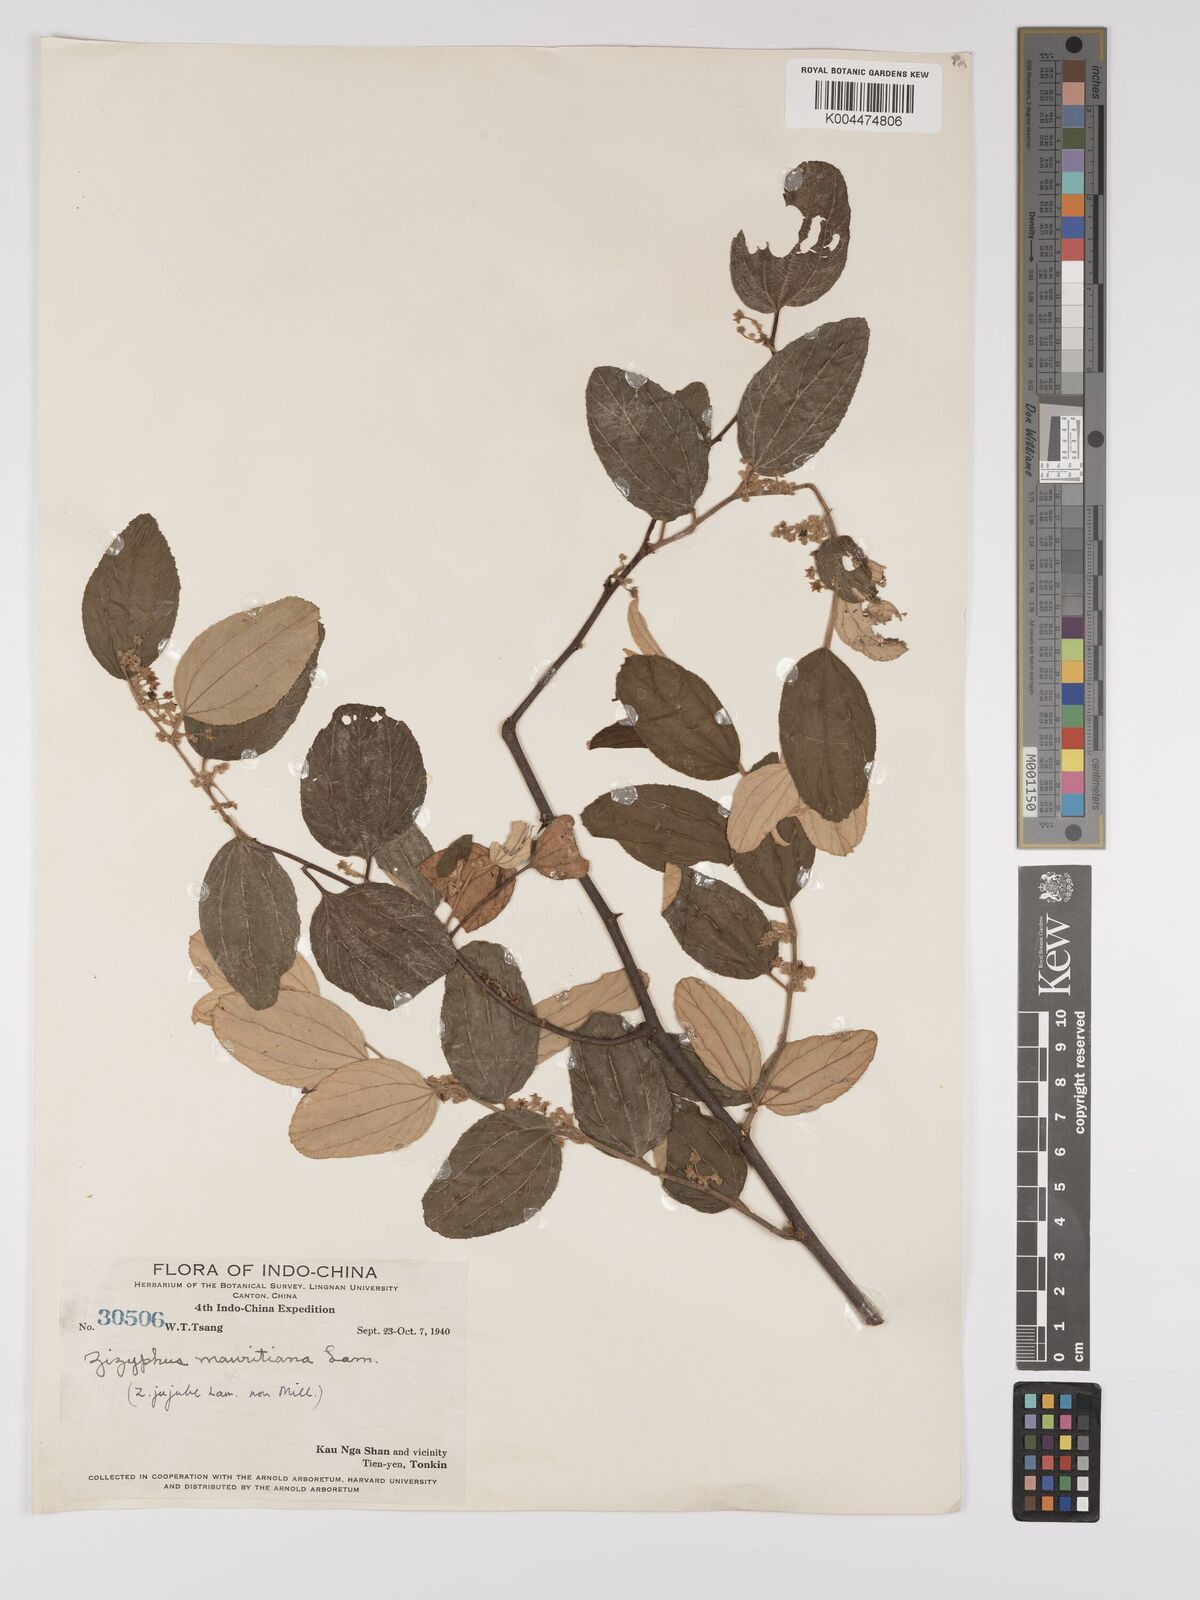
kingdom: Plantae
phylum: Tracheophyta
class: Magnoliopsida
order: Rosales
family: Rhamnaceae
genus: Ziziphus
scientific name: Ziziphus mauritiana
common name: Indian jujube
